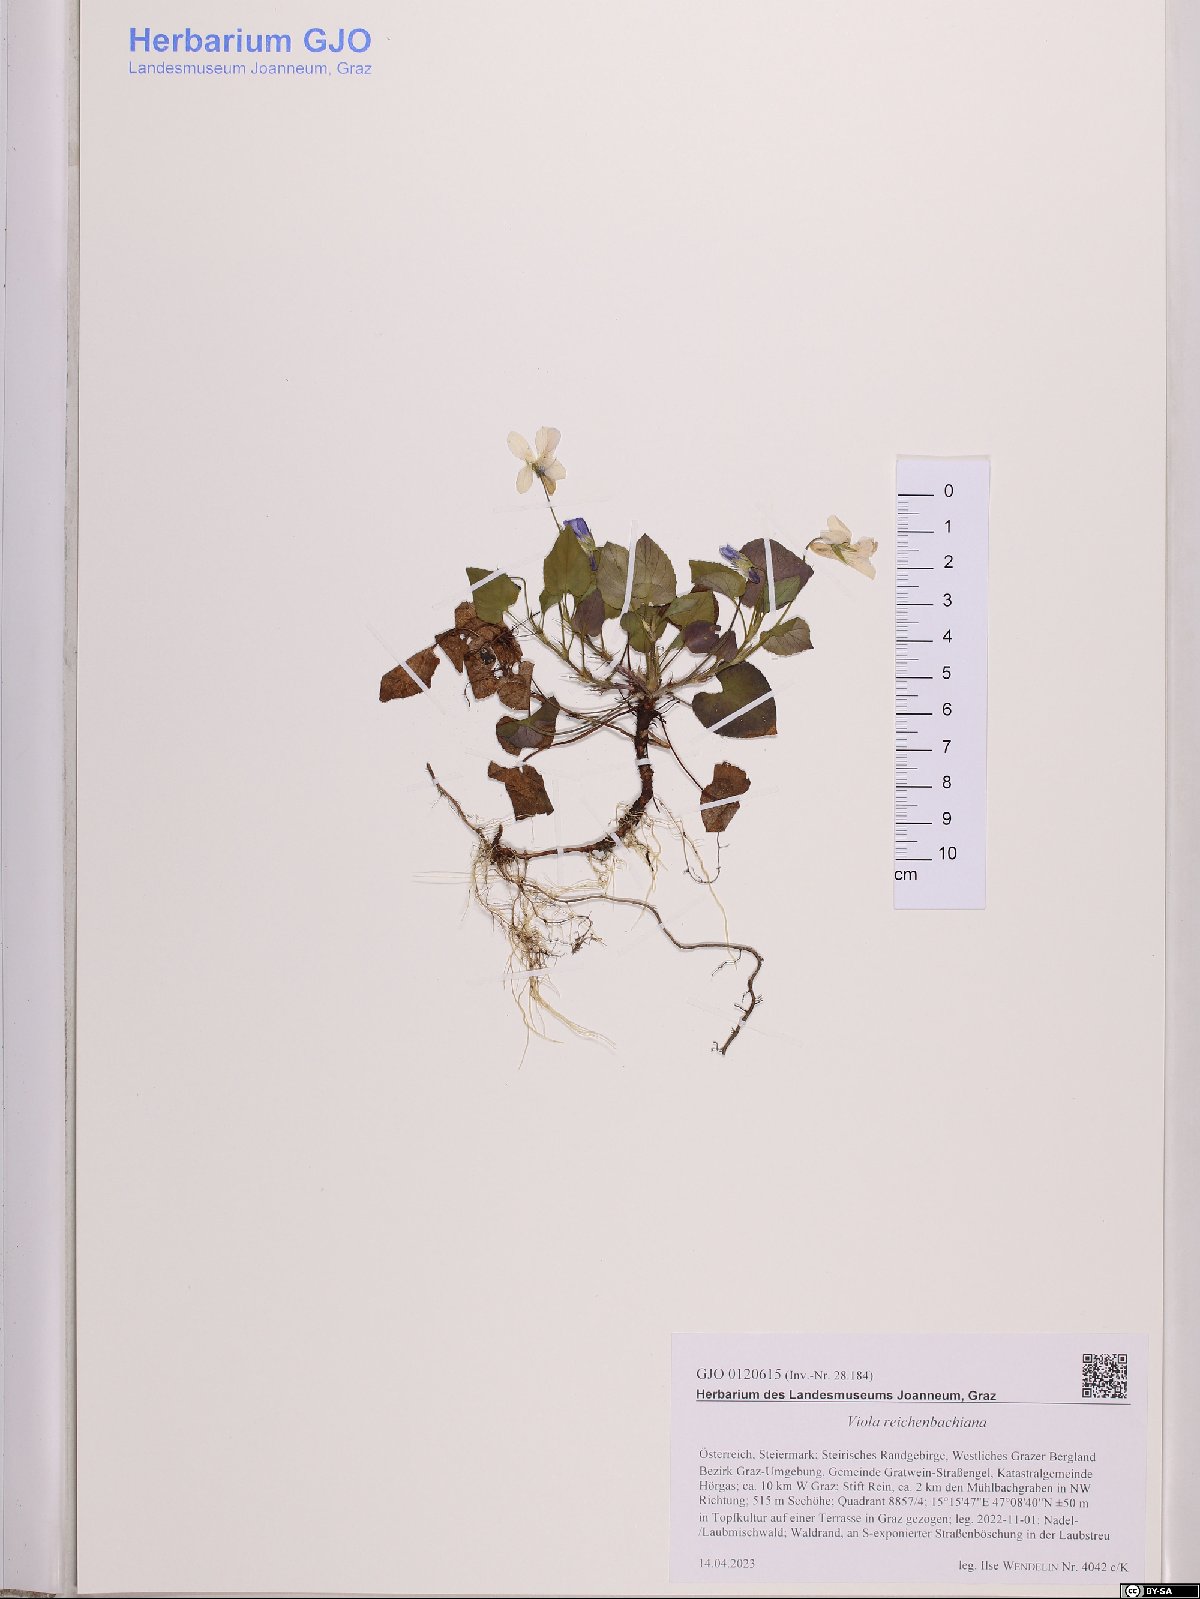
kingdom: Plantae
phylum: Tracheophyta
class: Magnoliopsida
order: Malpighiales
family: Violaceae
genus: Viola
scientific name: Viola reichenbachiana
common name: Early dog-violet
